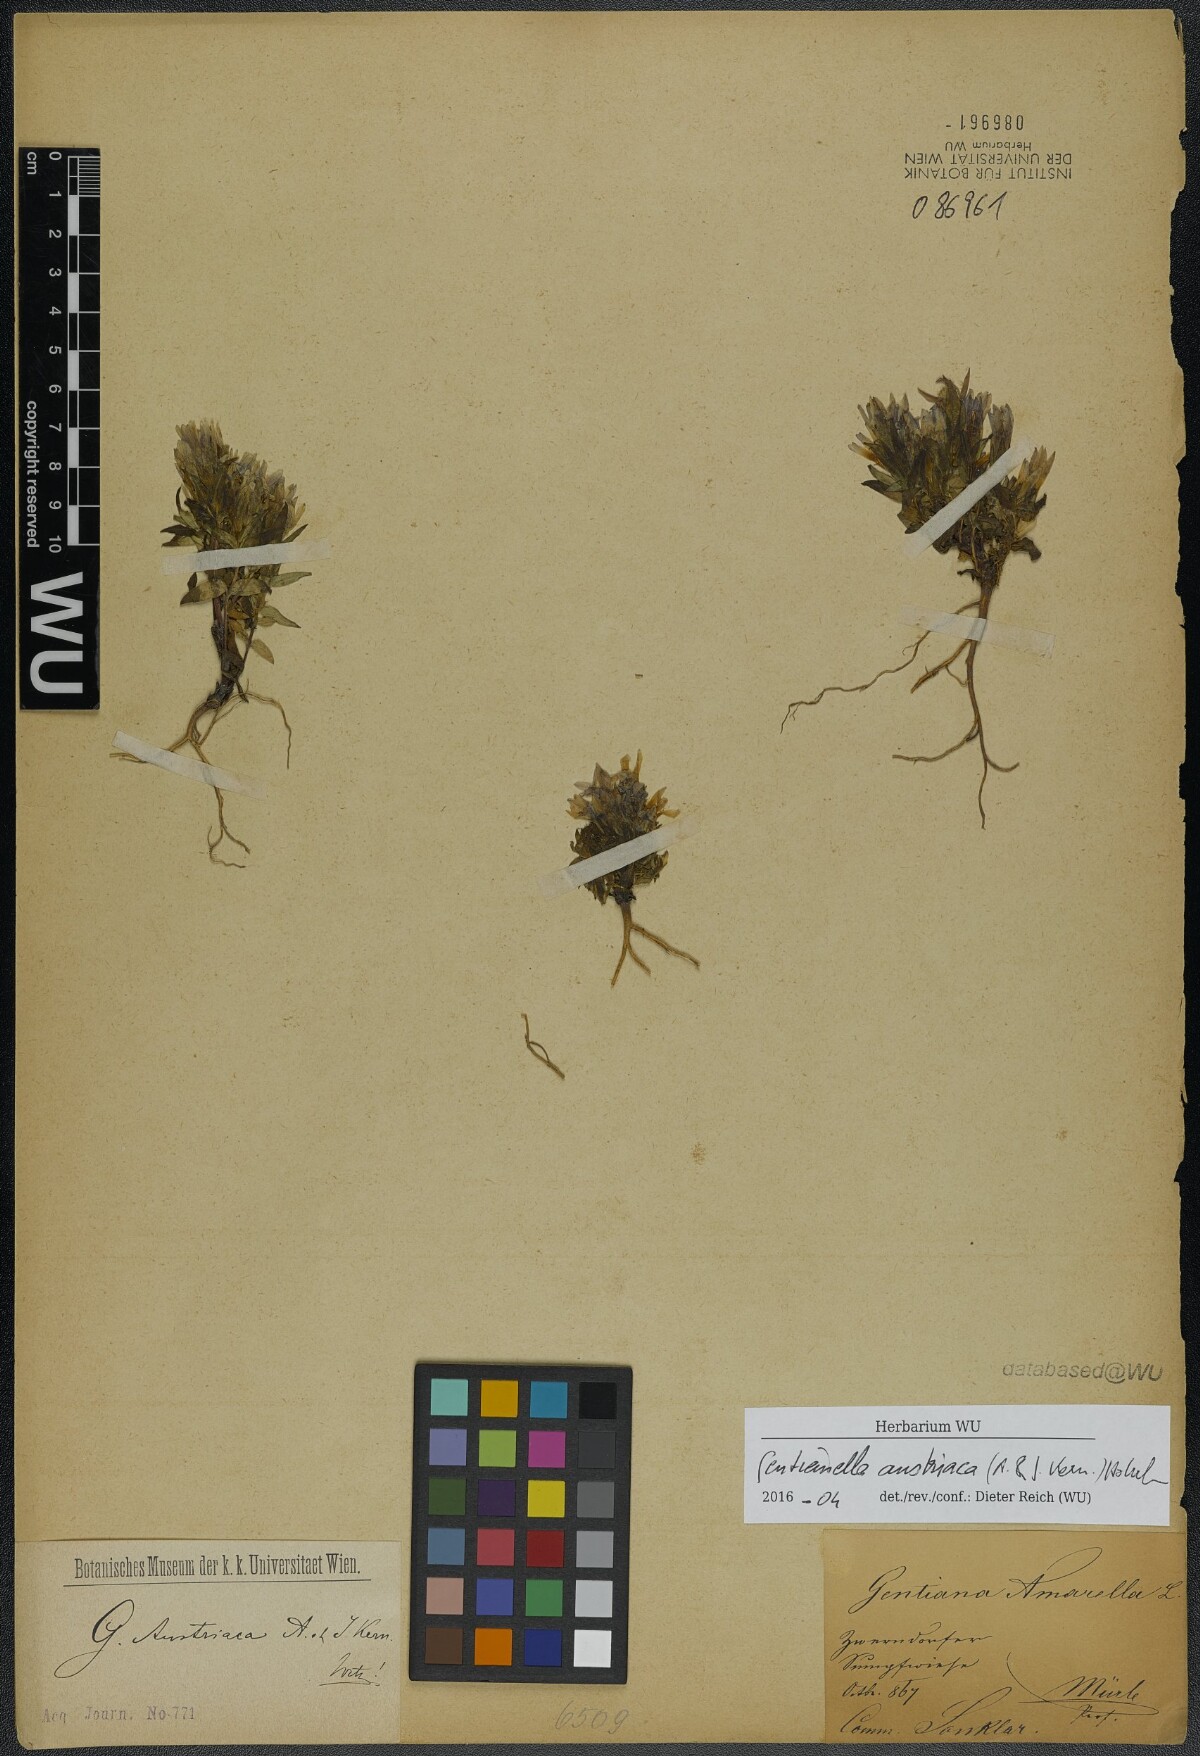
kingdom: Plantae
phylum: Tracheophyta
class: Magnoliopsida
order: Gentianales
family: Gentianaceae
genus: Gentianella
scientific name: Gentianella austriaca
